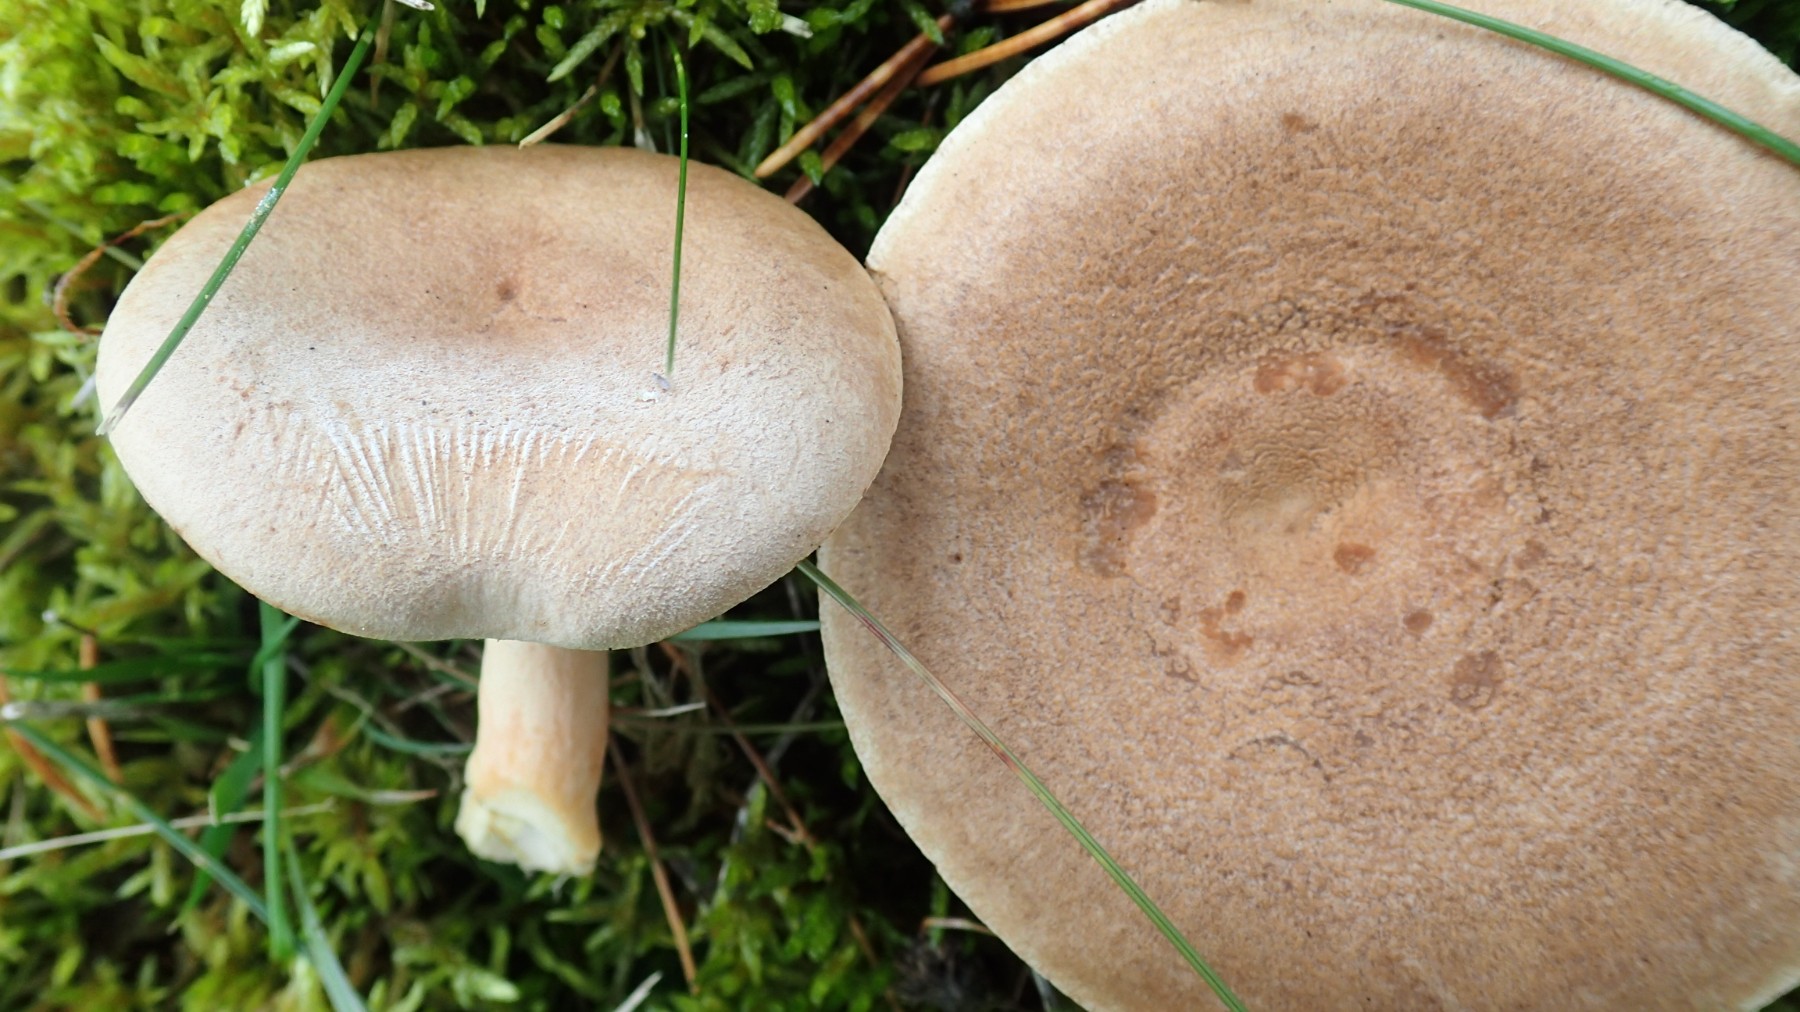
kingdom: Fungi
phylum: Basidiomycota
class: Agaricomycetes
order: Russulales
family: Russulaceae
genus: Lactarius
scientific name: Lactarius helvus
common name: mose-mælkehat
